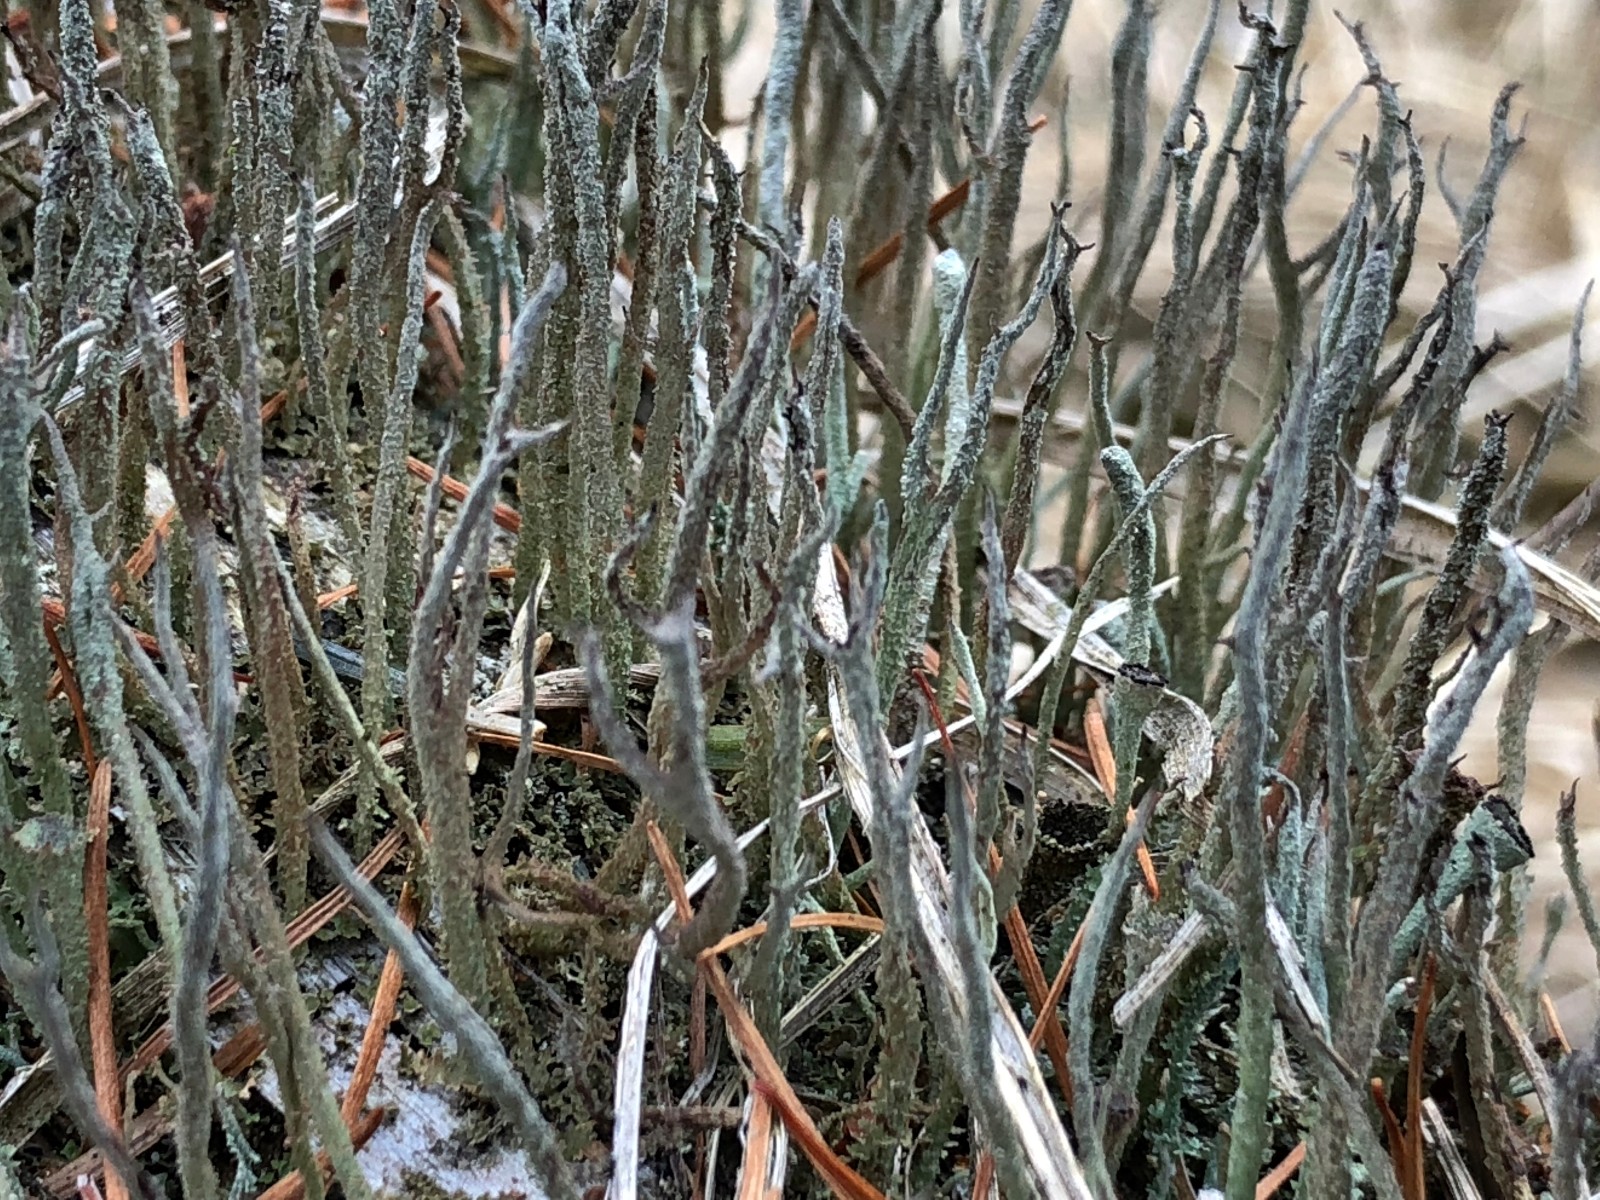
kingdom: Fungi
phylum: Ascomycota
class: Lecanoromycetes
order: Lecanorales
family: Cladoniaceae
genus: Cladonia
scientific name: Cladonia scabriuscula
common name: ru bægerlav
